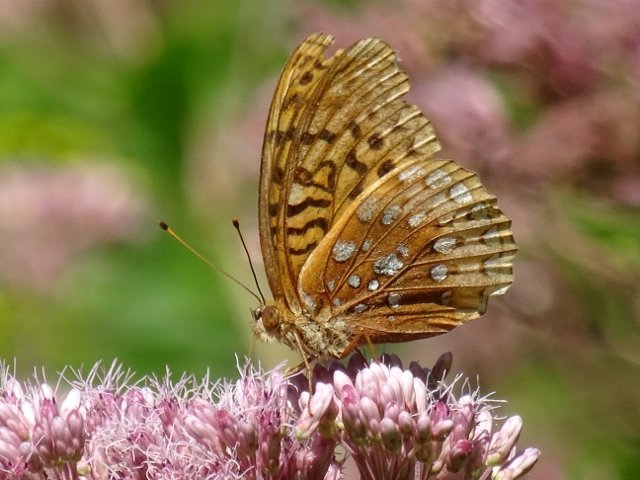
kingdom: Animalia
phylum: Arthropoda
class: Insecta
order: Lepidoptera
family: Nymphalidae
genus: Speyeria
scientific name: Speyeria cybele
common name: Great Spangled Fritillary
